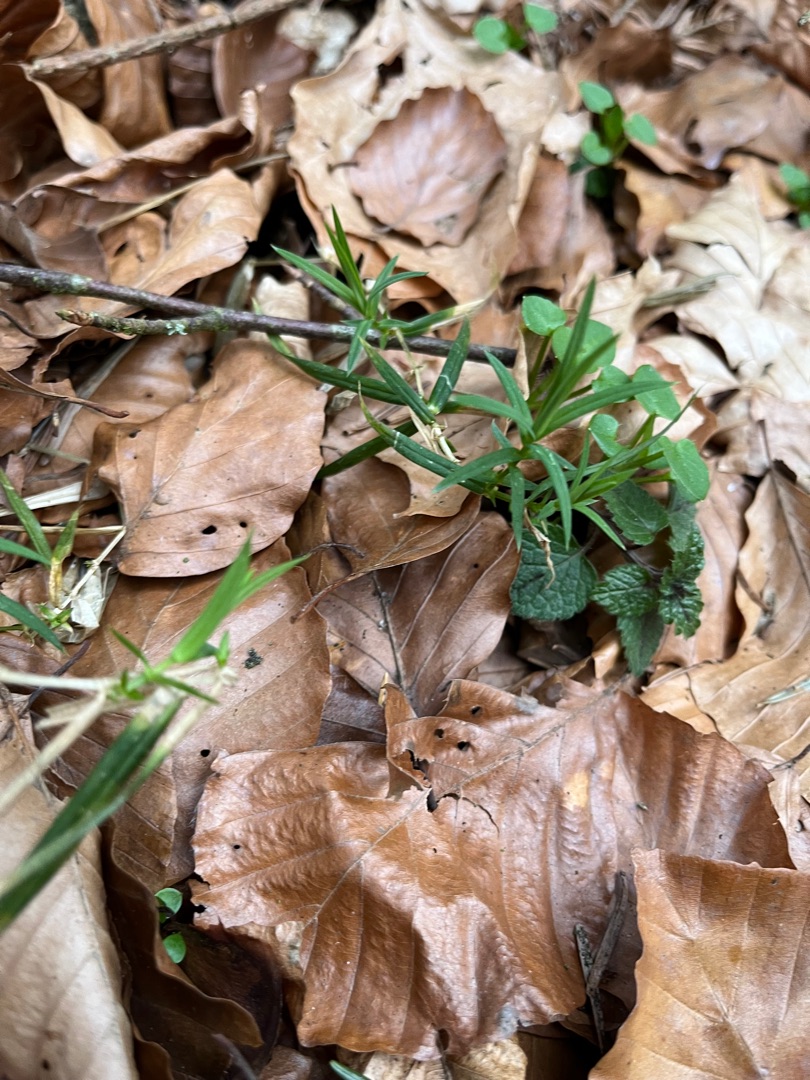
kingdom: Plantae
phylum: Tracheophyta
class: Magnoliopsida
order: Caryophyllales
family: Caryophyllaceae
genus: Rabelera
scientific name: Rabelera holostea
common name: Stor fladstjerne
